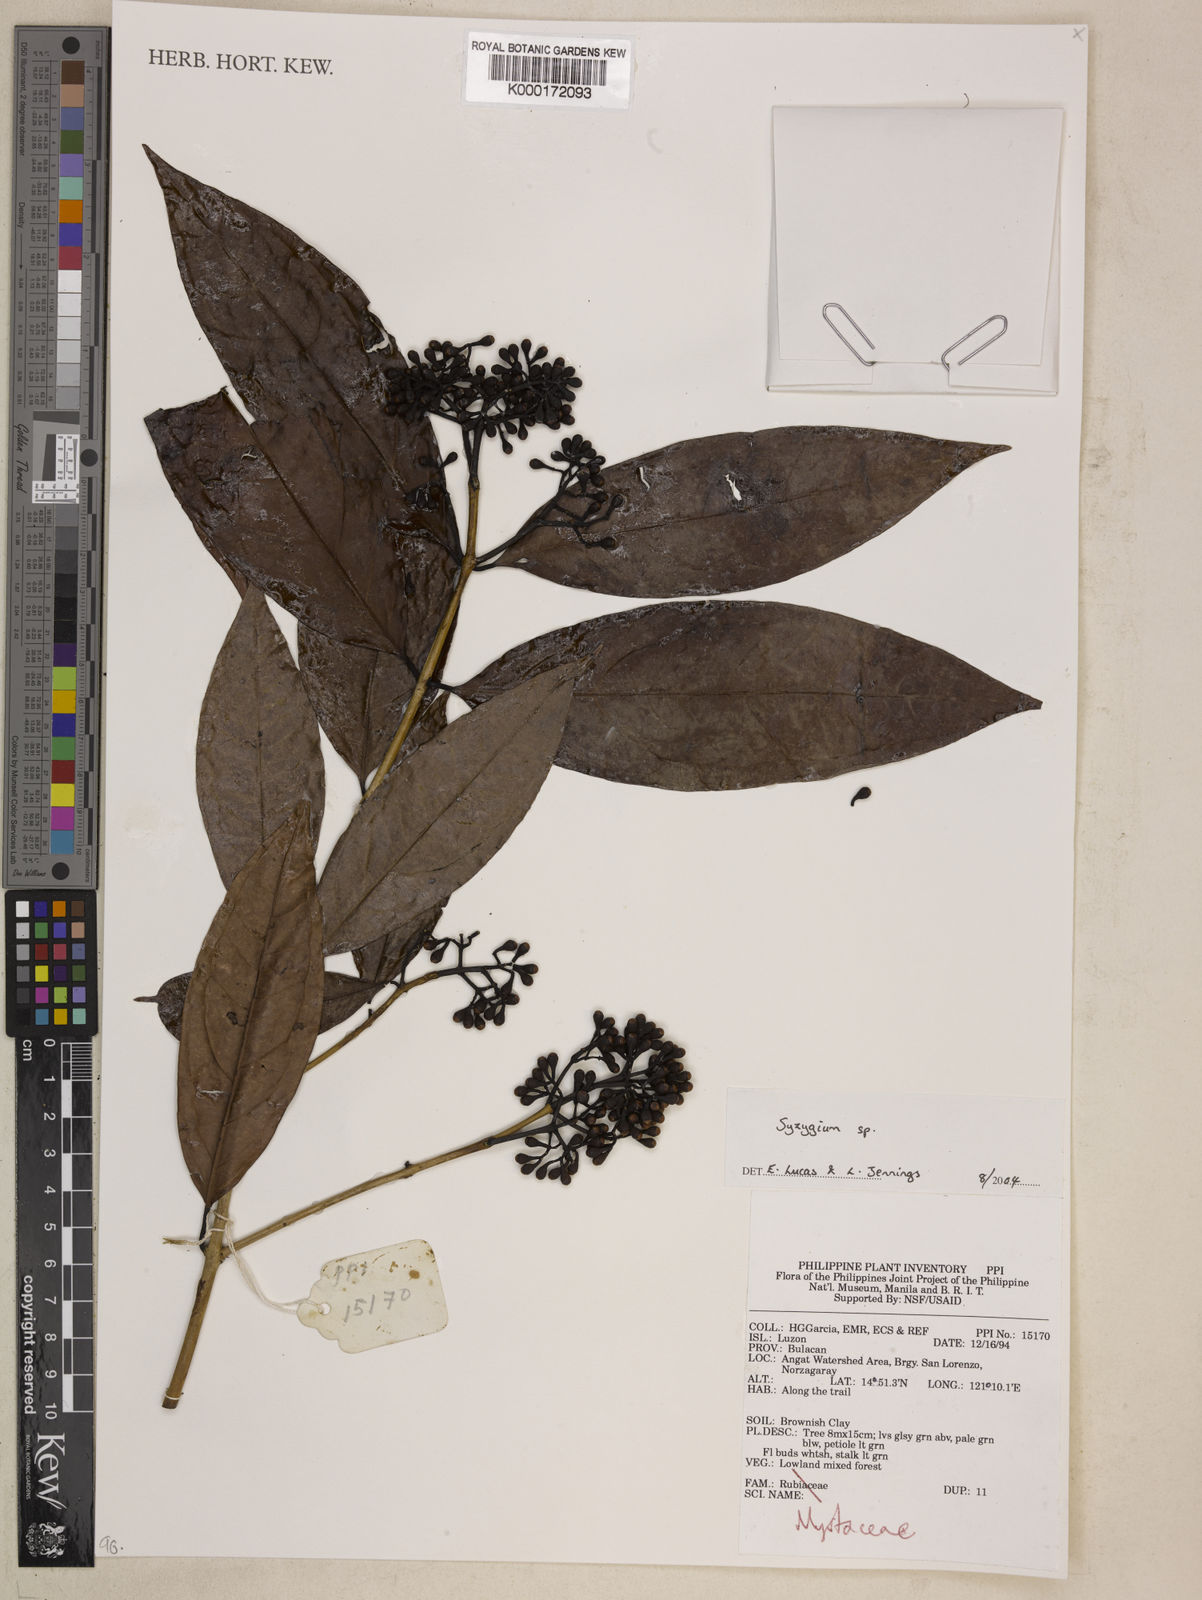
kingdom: Plantae
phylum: Tracheophyta
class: Magnoliopsida
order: Myrtales
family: Myrtaceae
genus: Syzygium
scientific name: Syzygium
